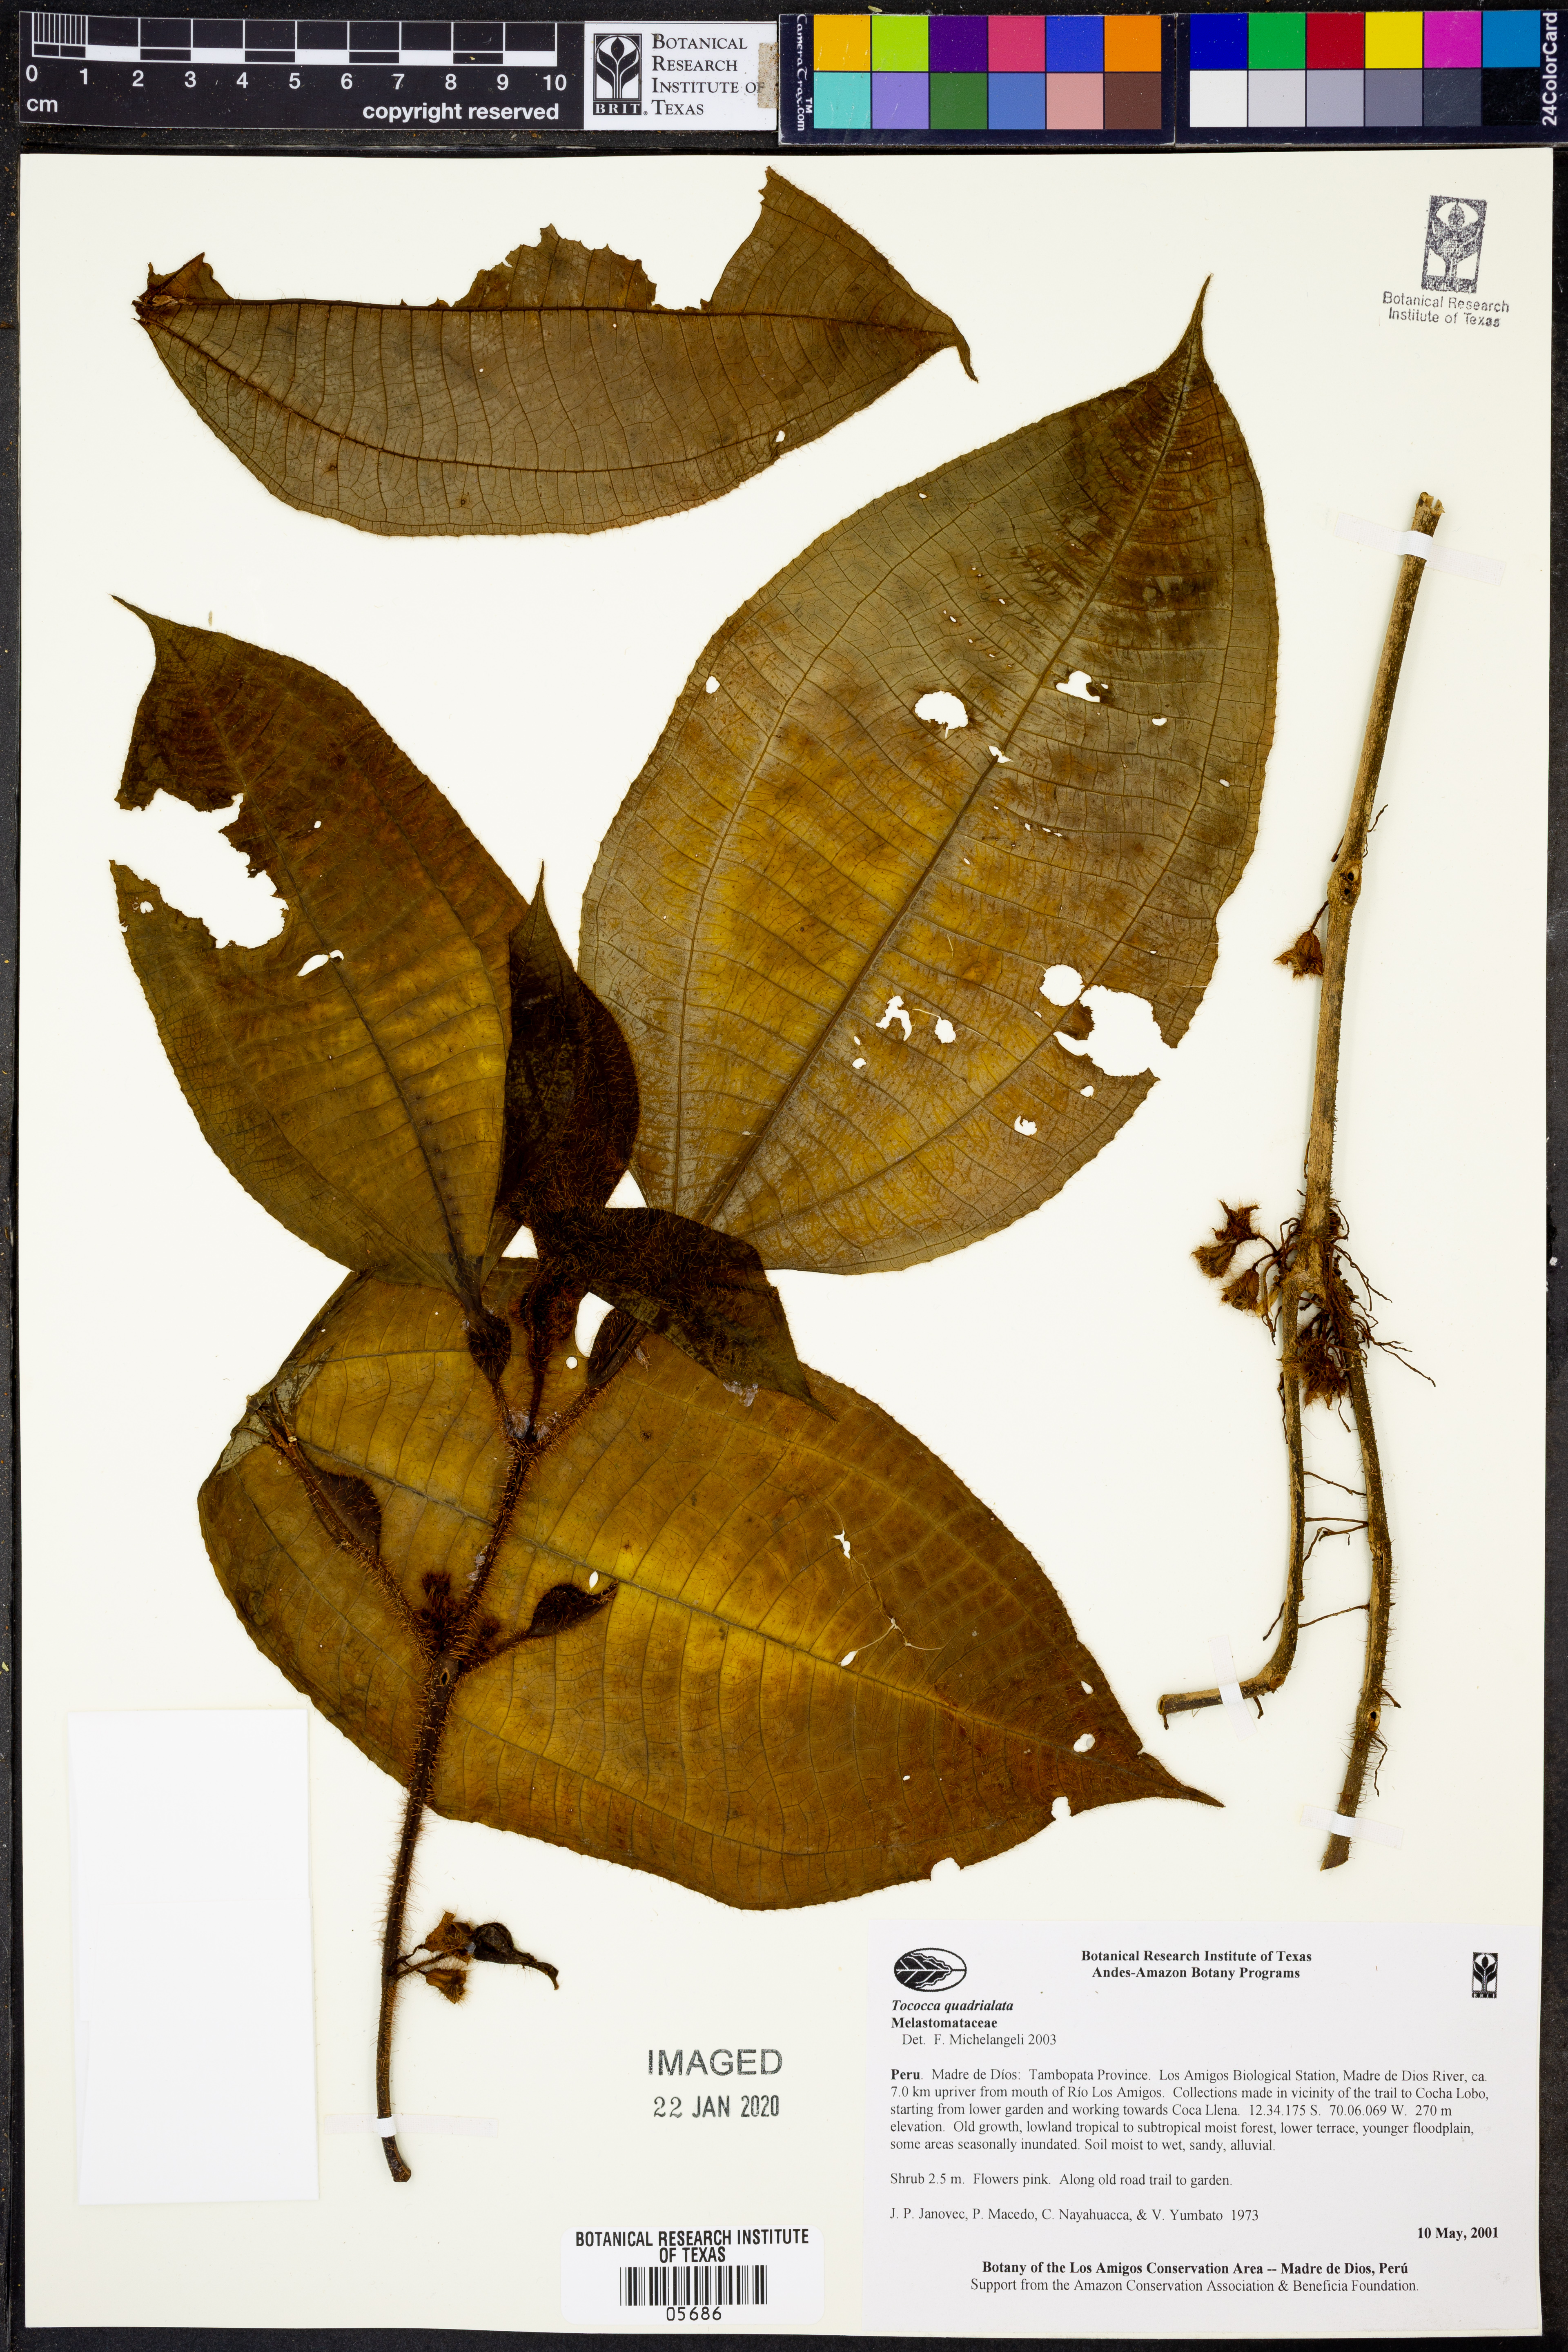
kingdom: Plantae
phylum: Tracheophyta
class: Magnoliopsida
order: Myrtales
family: Melastomataceae
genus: Miconia
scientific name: Miconia microphysca
